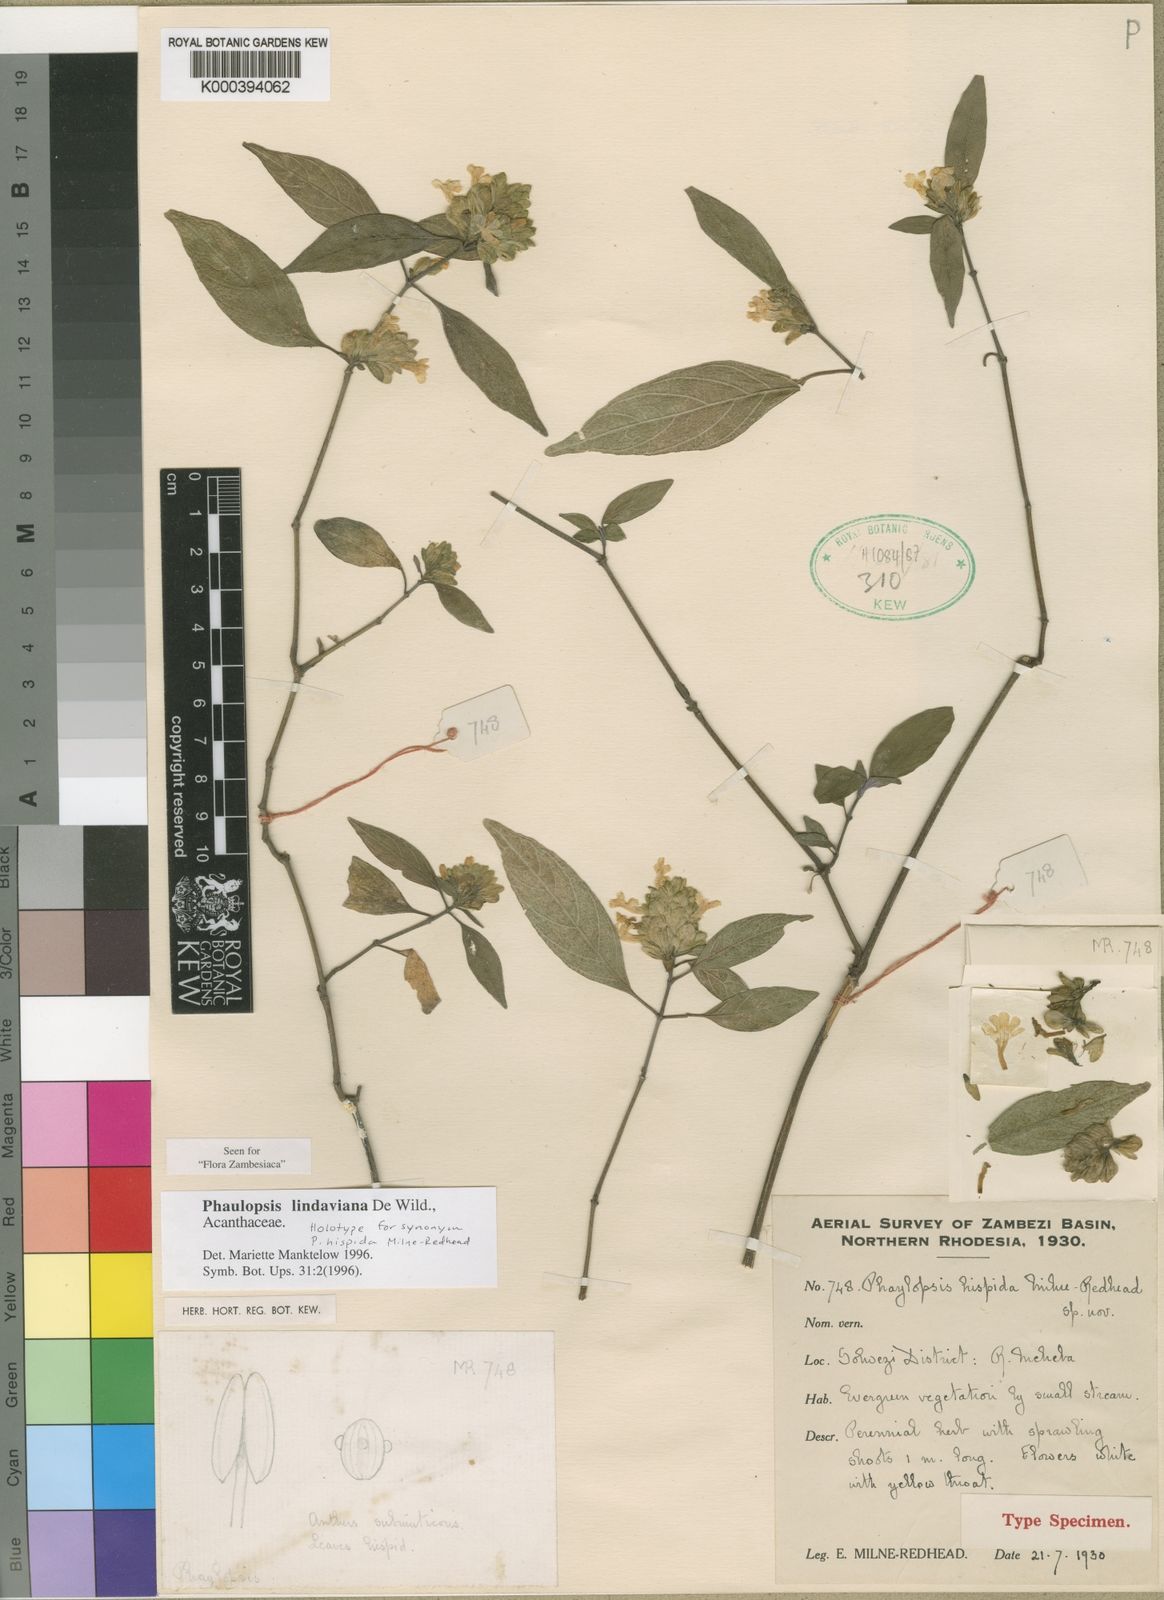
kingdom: Plantae
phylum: Tracheophyta
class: Magnoliopsida
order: Lamiales
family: Acanthaceae
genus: Phaulopsis
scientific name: Phaulopsis lindaviana
